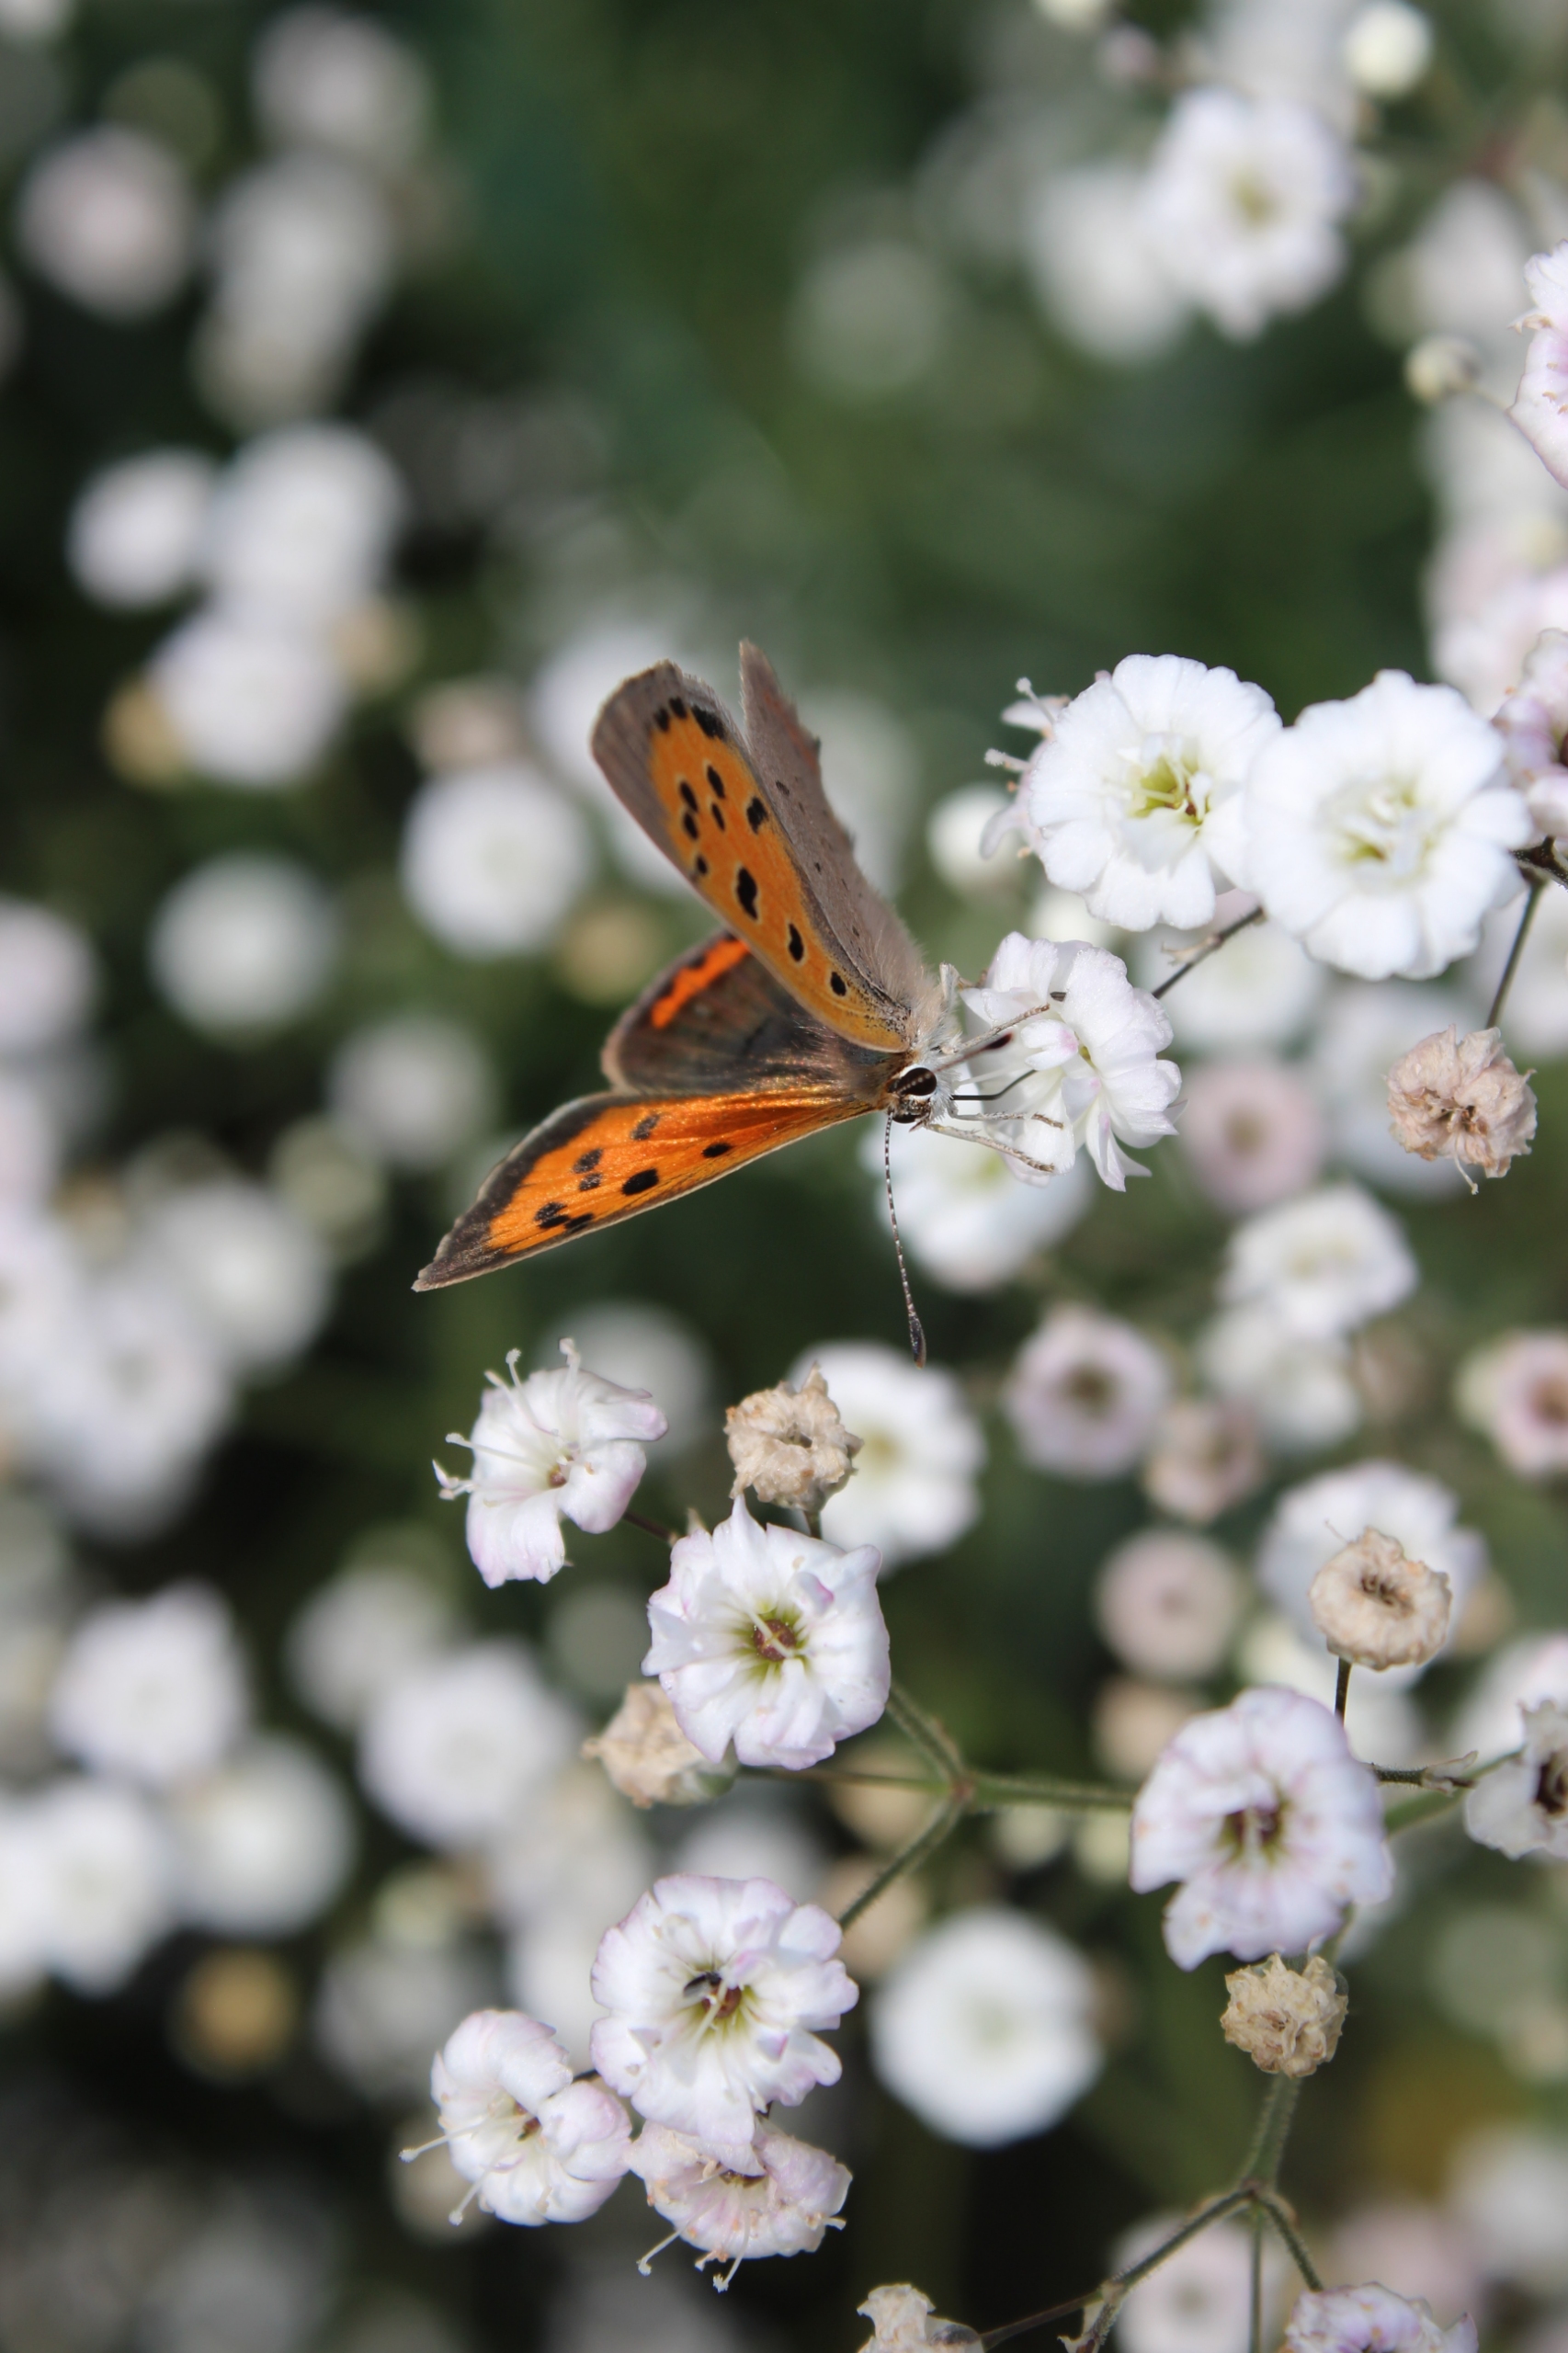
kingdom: Animalia
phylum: Arthropoda
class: Insecta
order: Lepidoptera
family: Lycaenidae
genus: Lycaena
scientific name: Lycaena phlaeas
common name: Lille ildfugl
